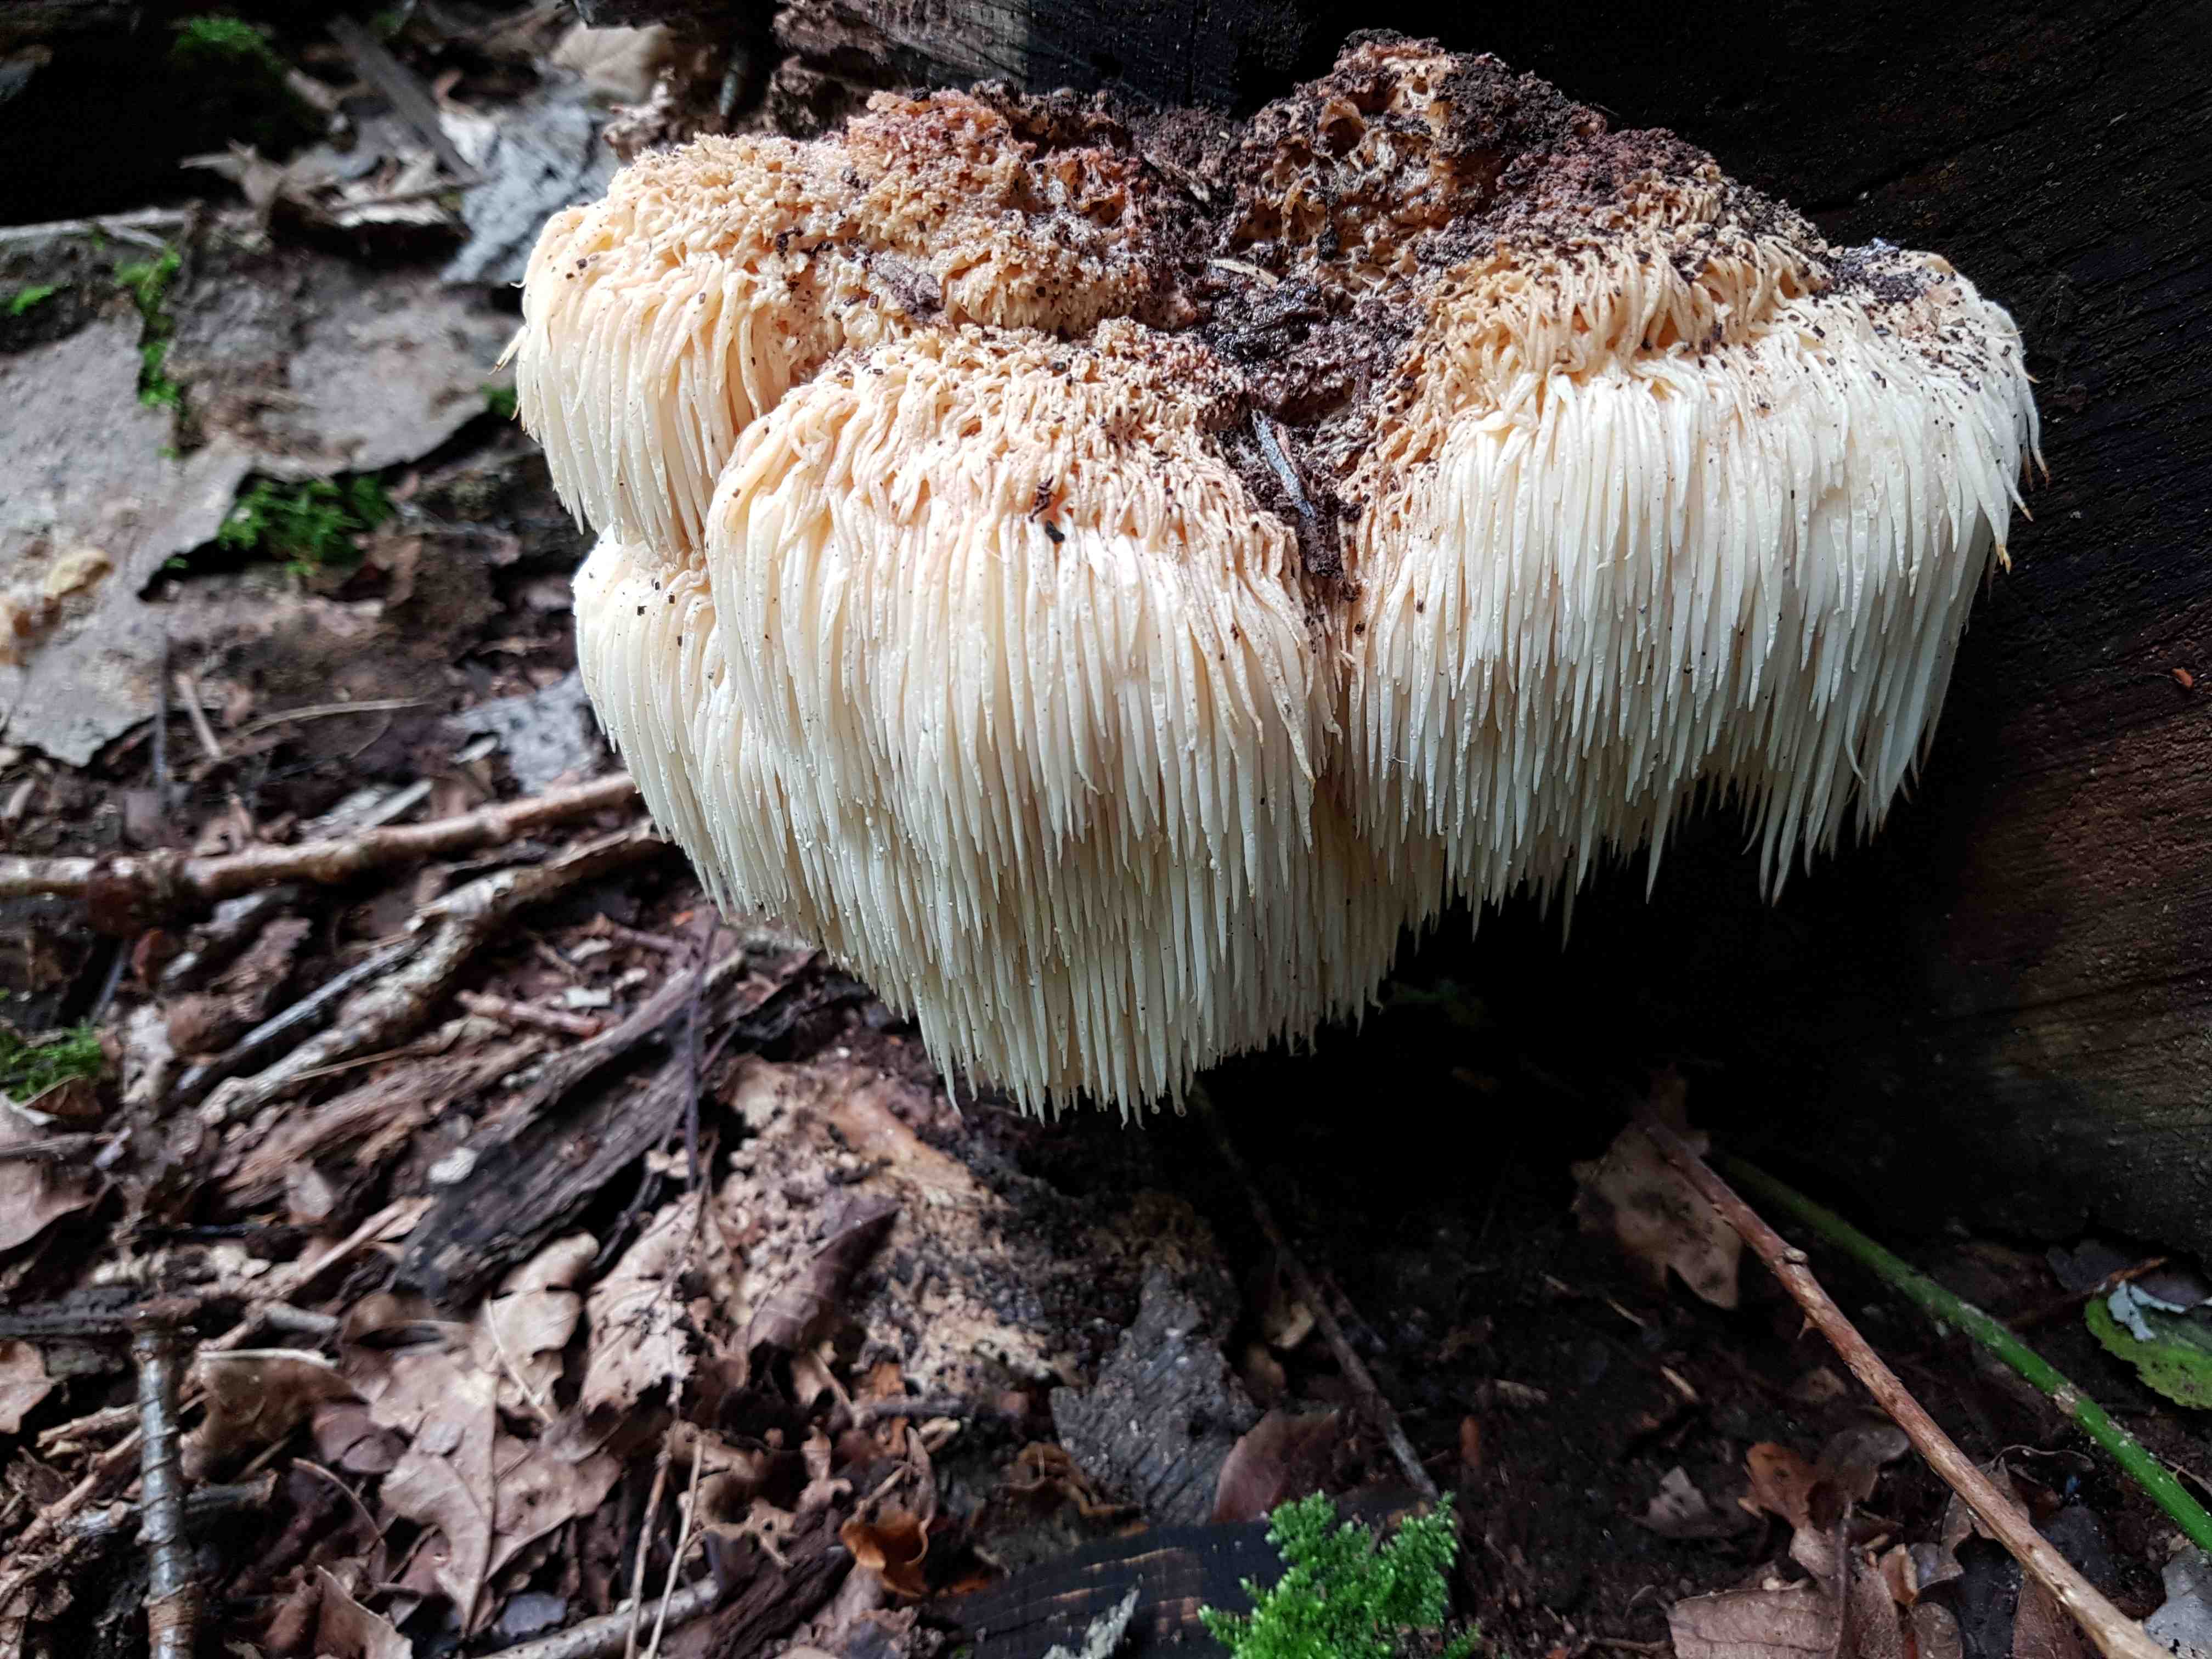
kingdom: Fungi
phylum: Basidiomycota
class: Agaricomycetes
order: Russulales
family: Hericiaceae
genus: Hericium
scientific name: Hericium erinaceus
